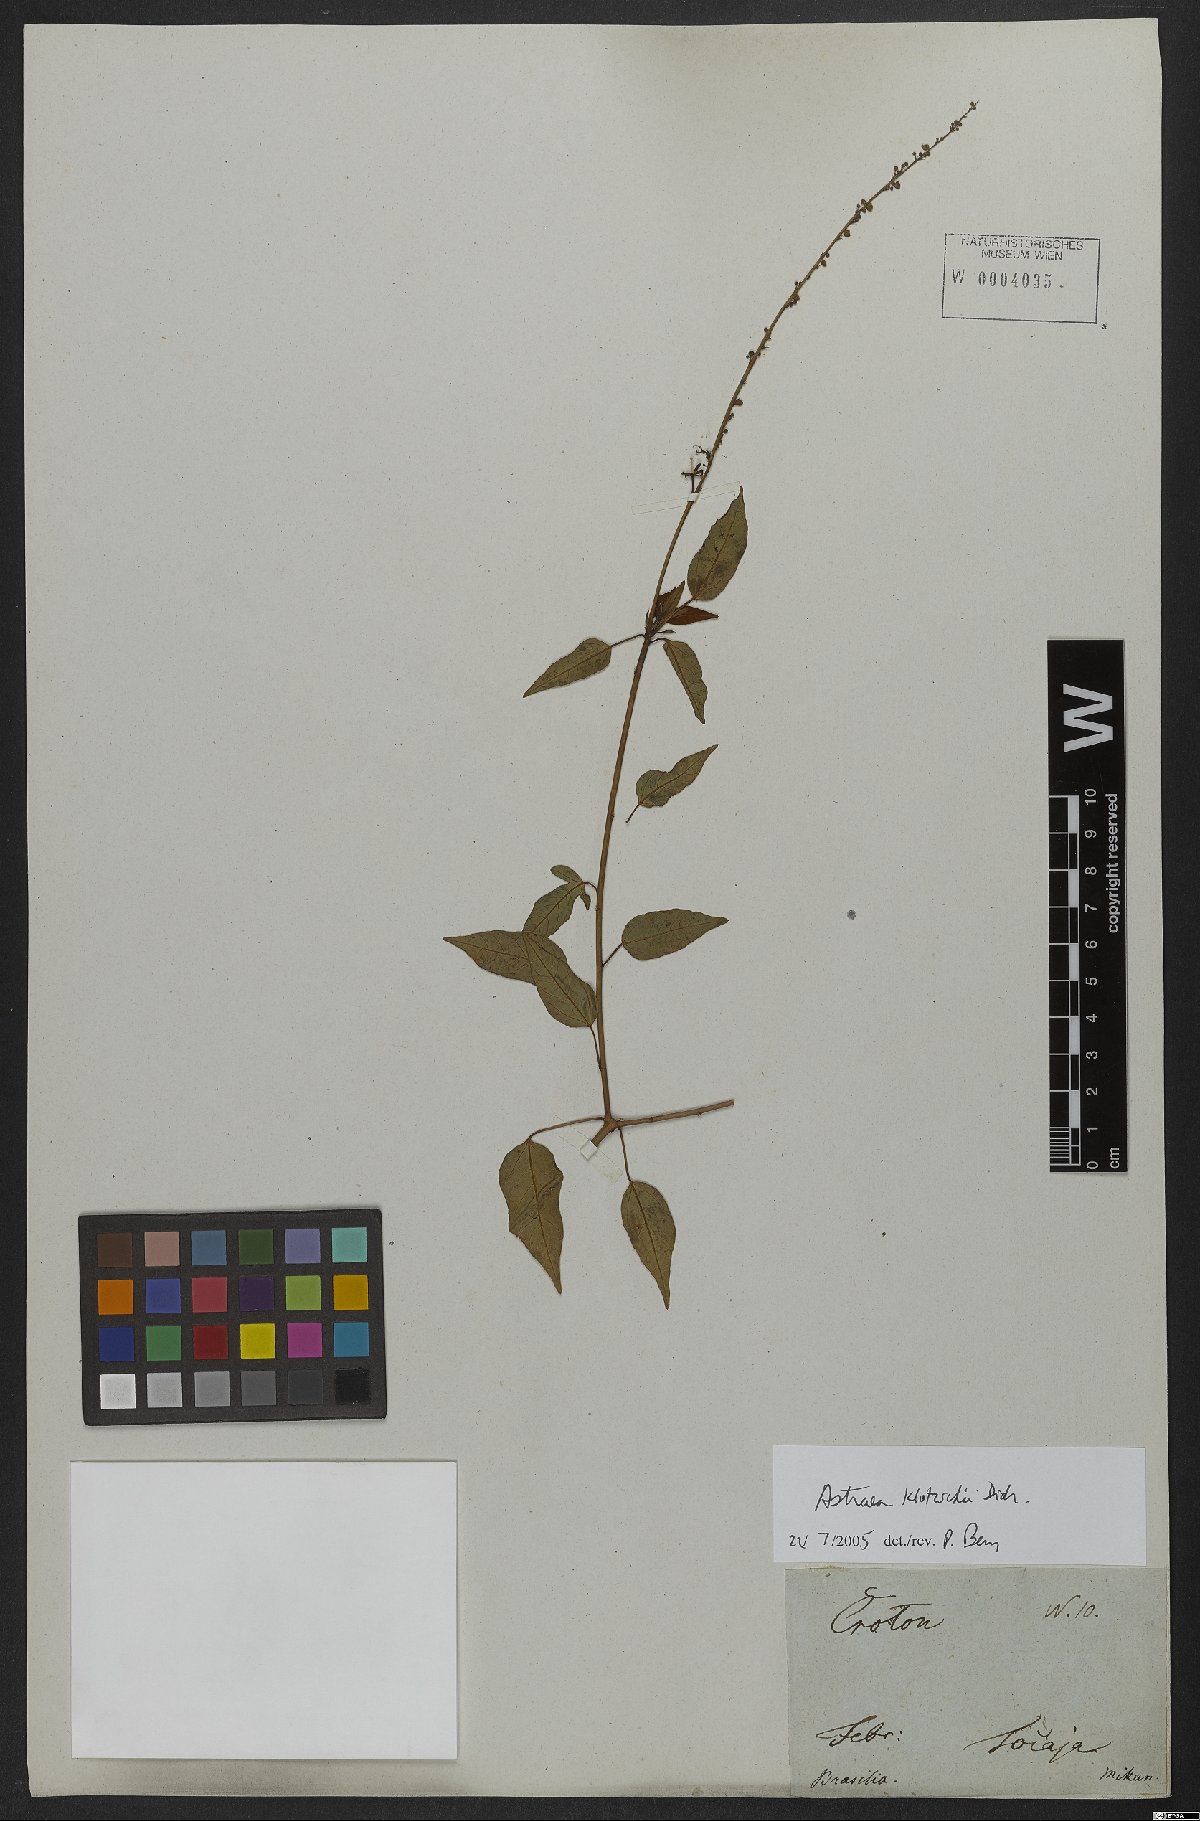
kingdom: Plantae
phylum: Tracheophyta
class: Magnoliopsida
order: Malpighiales
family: Euphorbiaceae
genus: Astraea
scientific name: Astraea macroura
